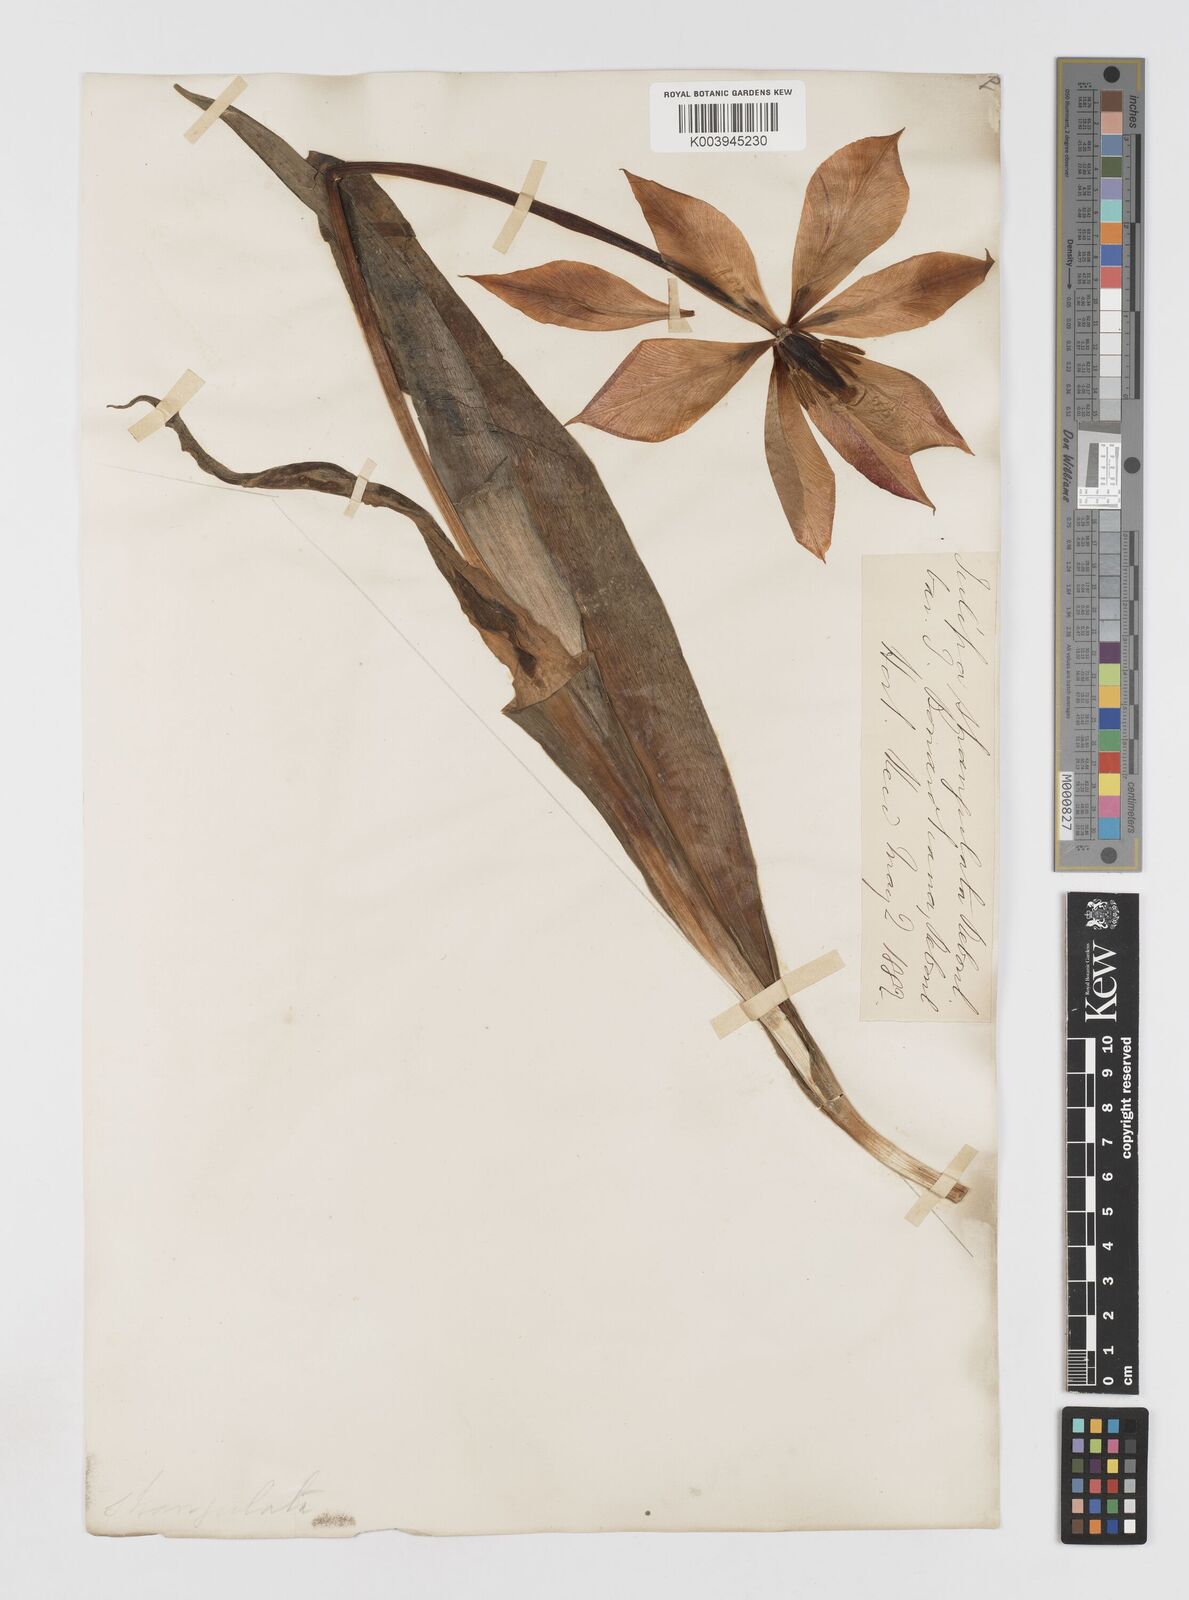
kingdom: Plantae
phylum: Tracheophyta
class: Liliopsida
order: Liliales
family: Liliaceae
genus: Tulipa
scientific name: Tulipa
